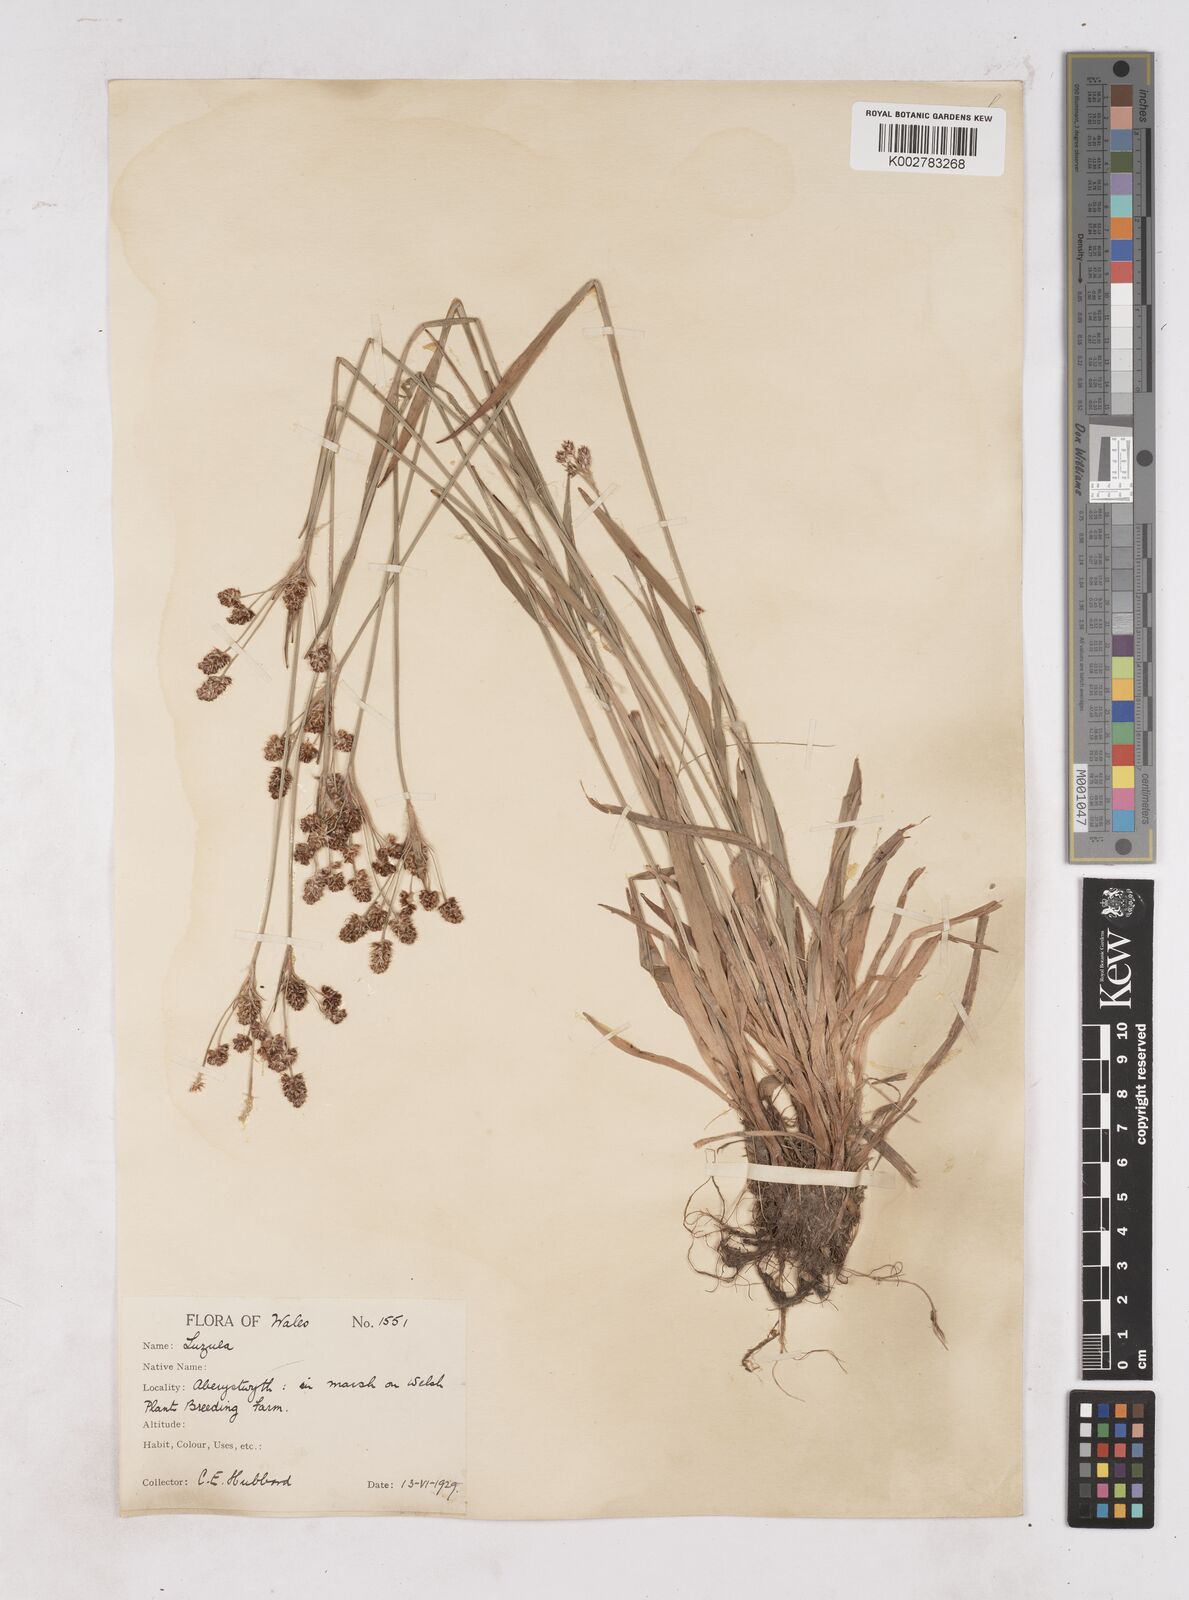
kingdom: Plantae
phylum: Tracheophyta
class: Liliopsida
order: Poales
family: Juncaceae
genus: Luzula
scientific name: Luzula multiflora
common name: Heath wood-rush
